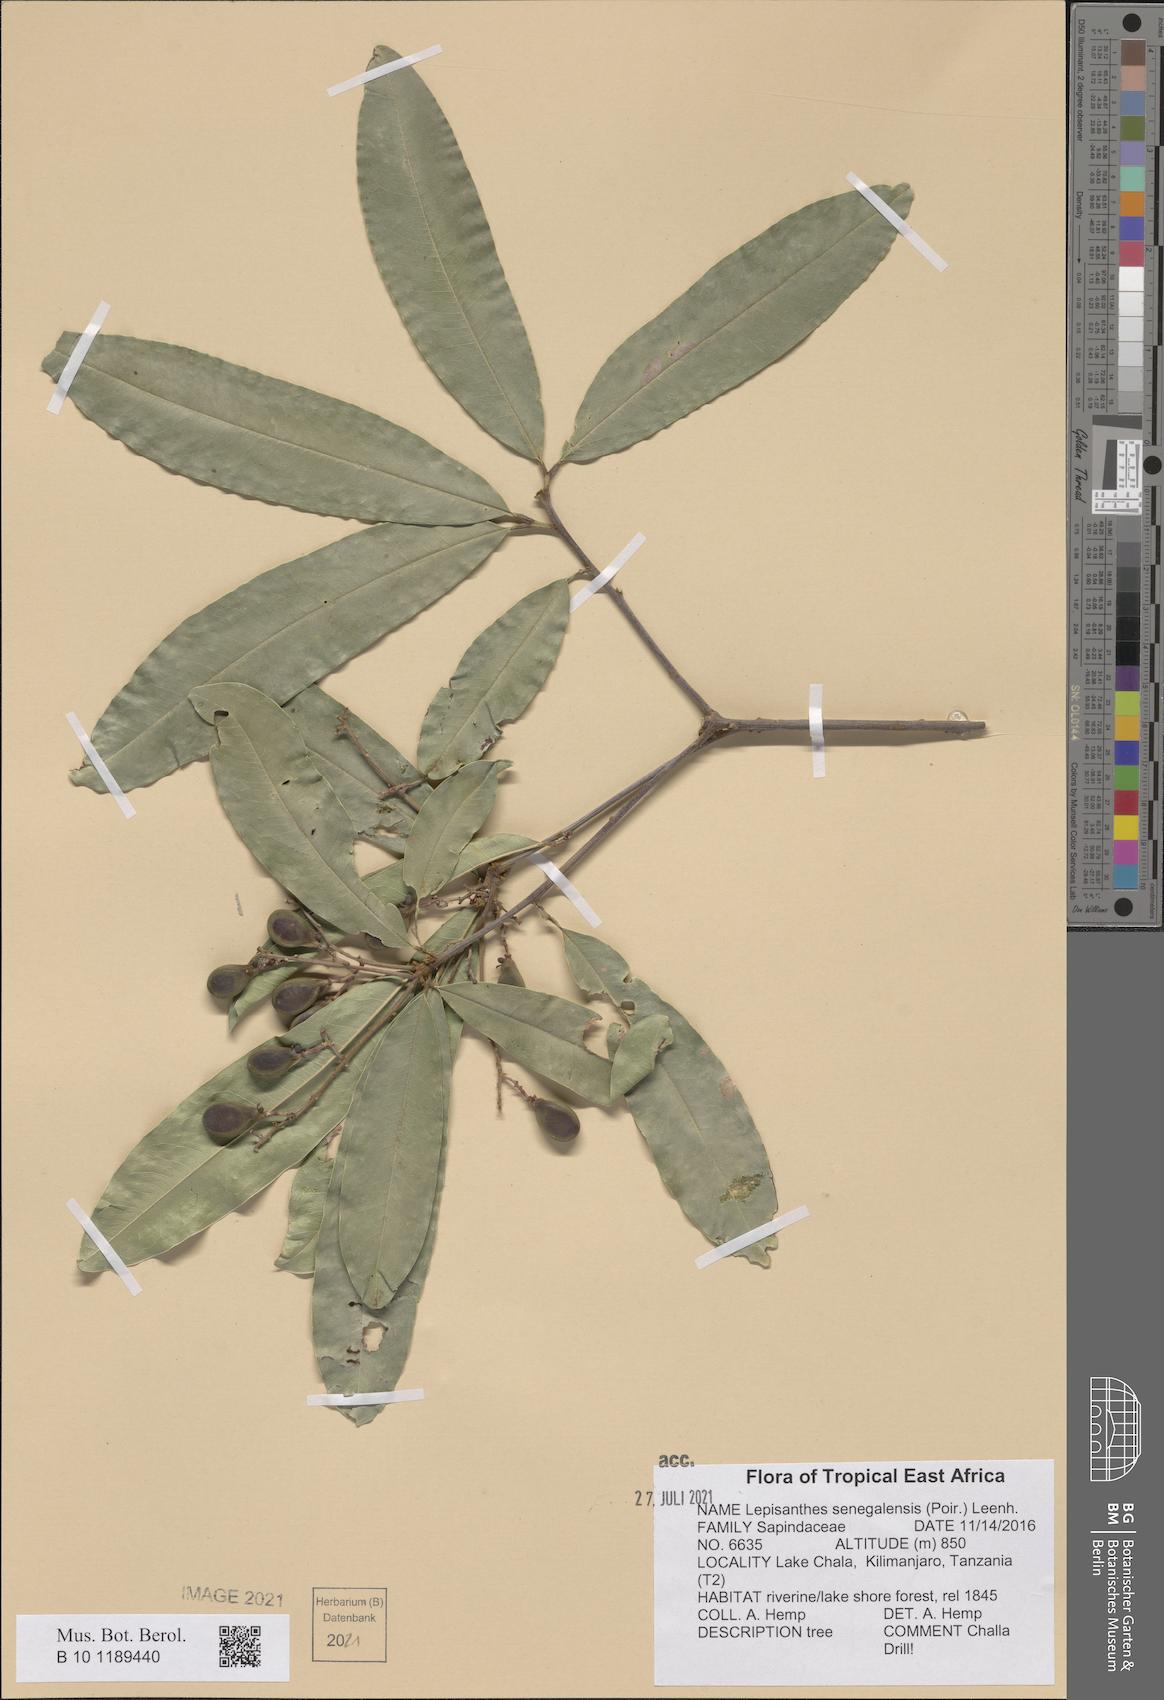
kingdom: Plantae
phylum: Tracheophyta
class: Magnoliopsida
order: Sapindales
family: Sapindaceae
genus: Lepisanthes
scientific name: Lepisanthes senegalensis
